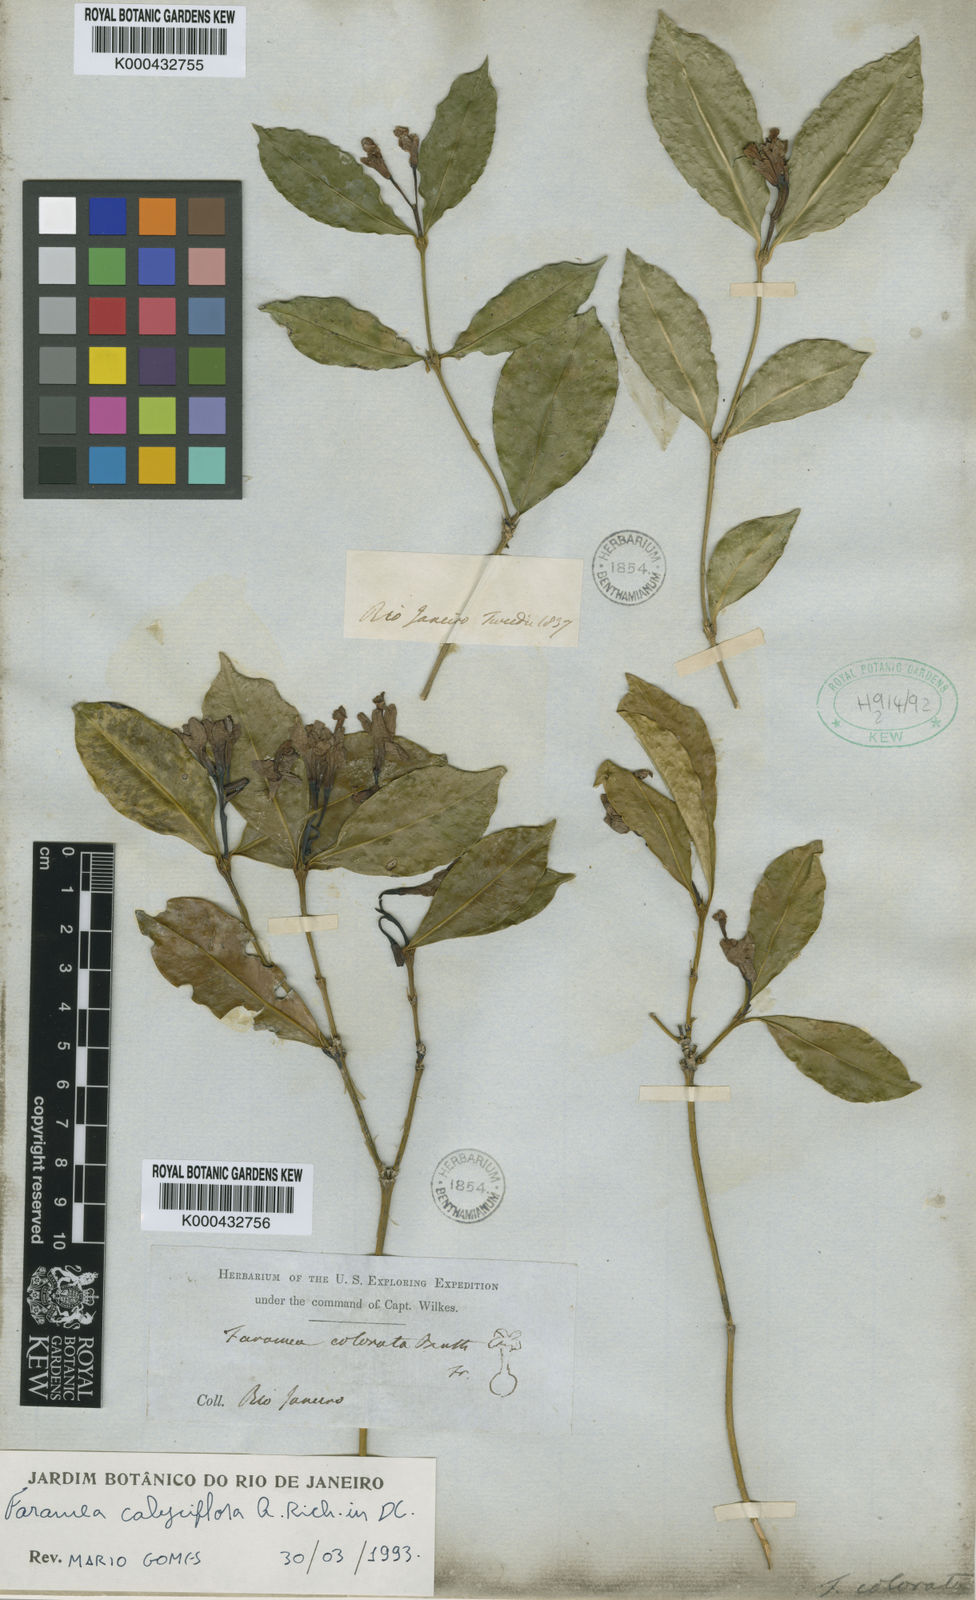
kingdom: Plantae
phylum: Tracheophyta
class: Magnoliopsida
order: Gentianales
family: Rubiaceae
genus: Faramea
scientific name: Faramea calyciflora
